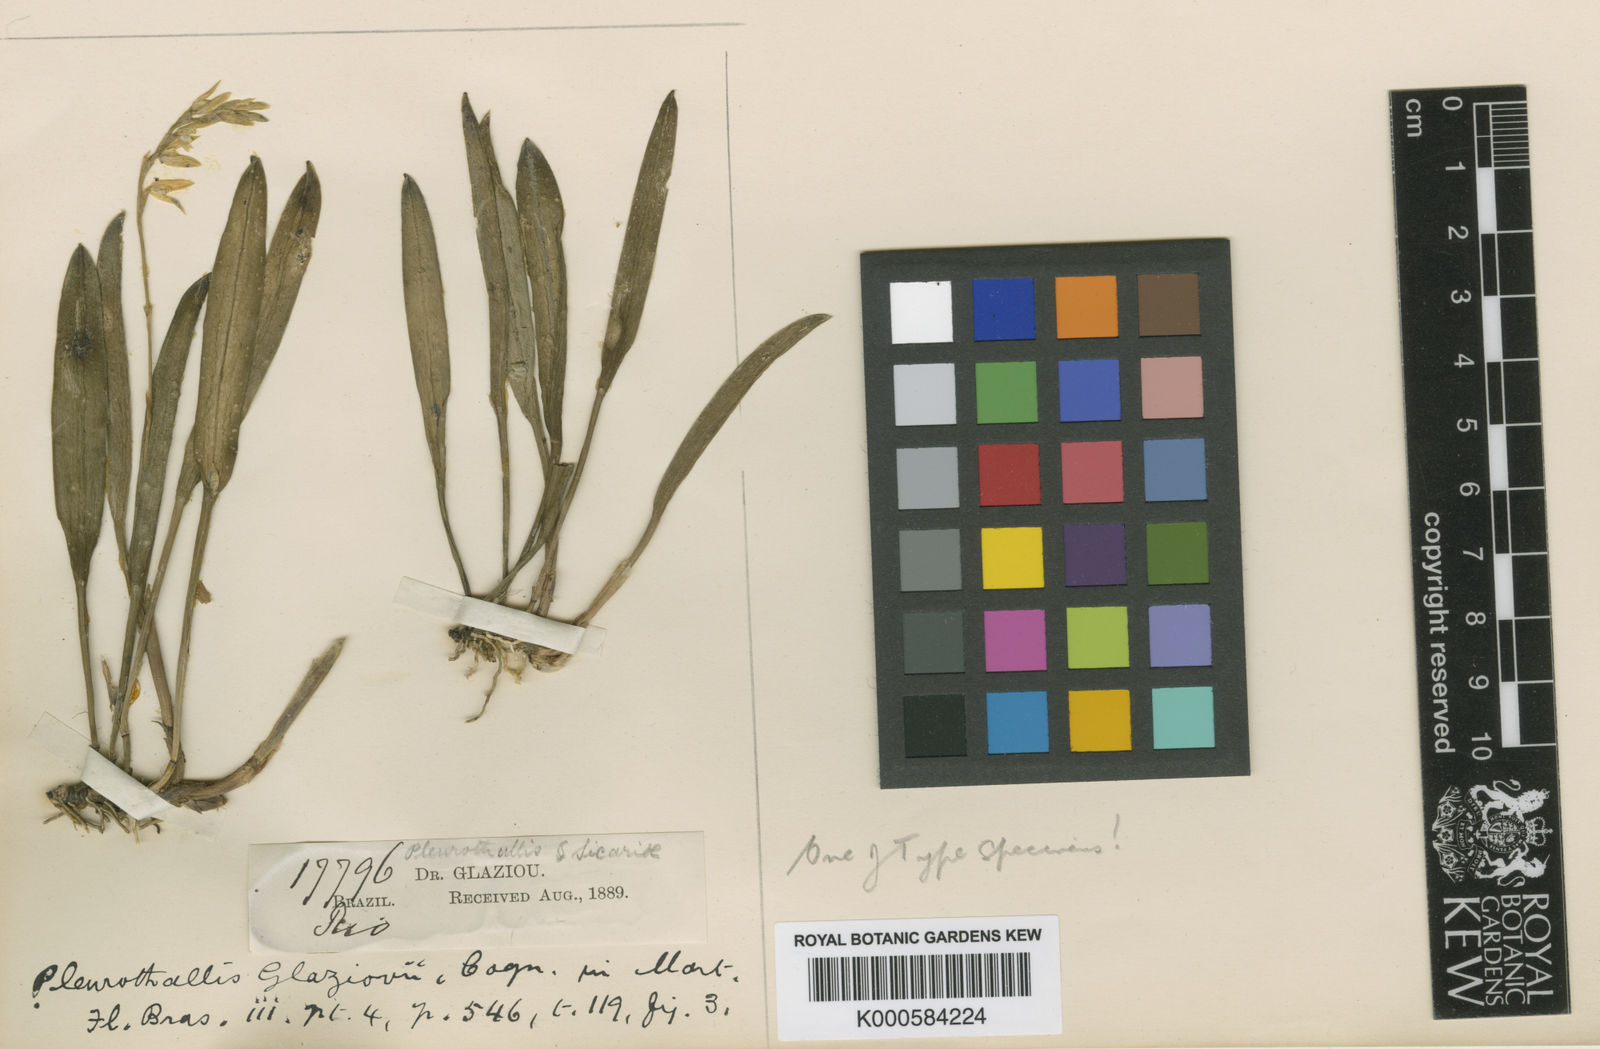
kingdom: Plantae
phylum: Tracheophyta
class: Liliopsida
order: Asparagales
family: Orchidaceae
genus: Acianthera
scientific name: Acianthera glumacea
